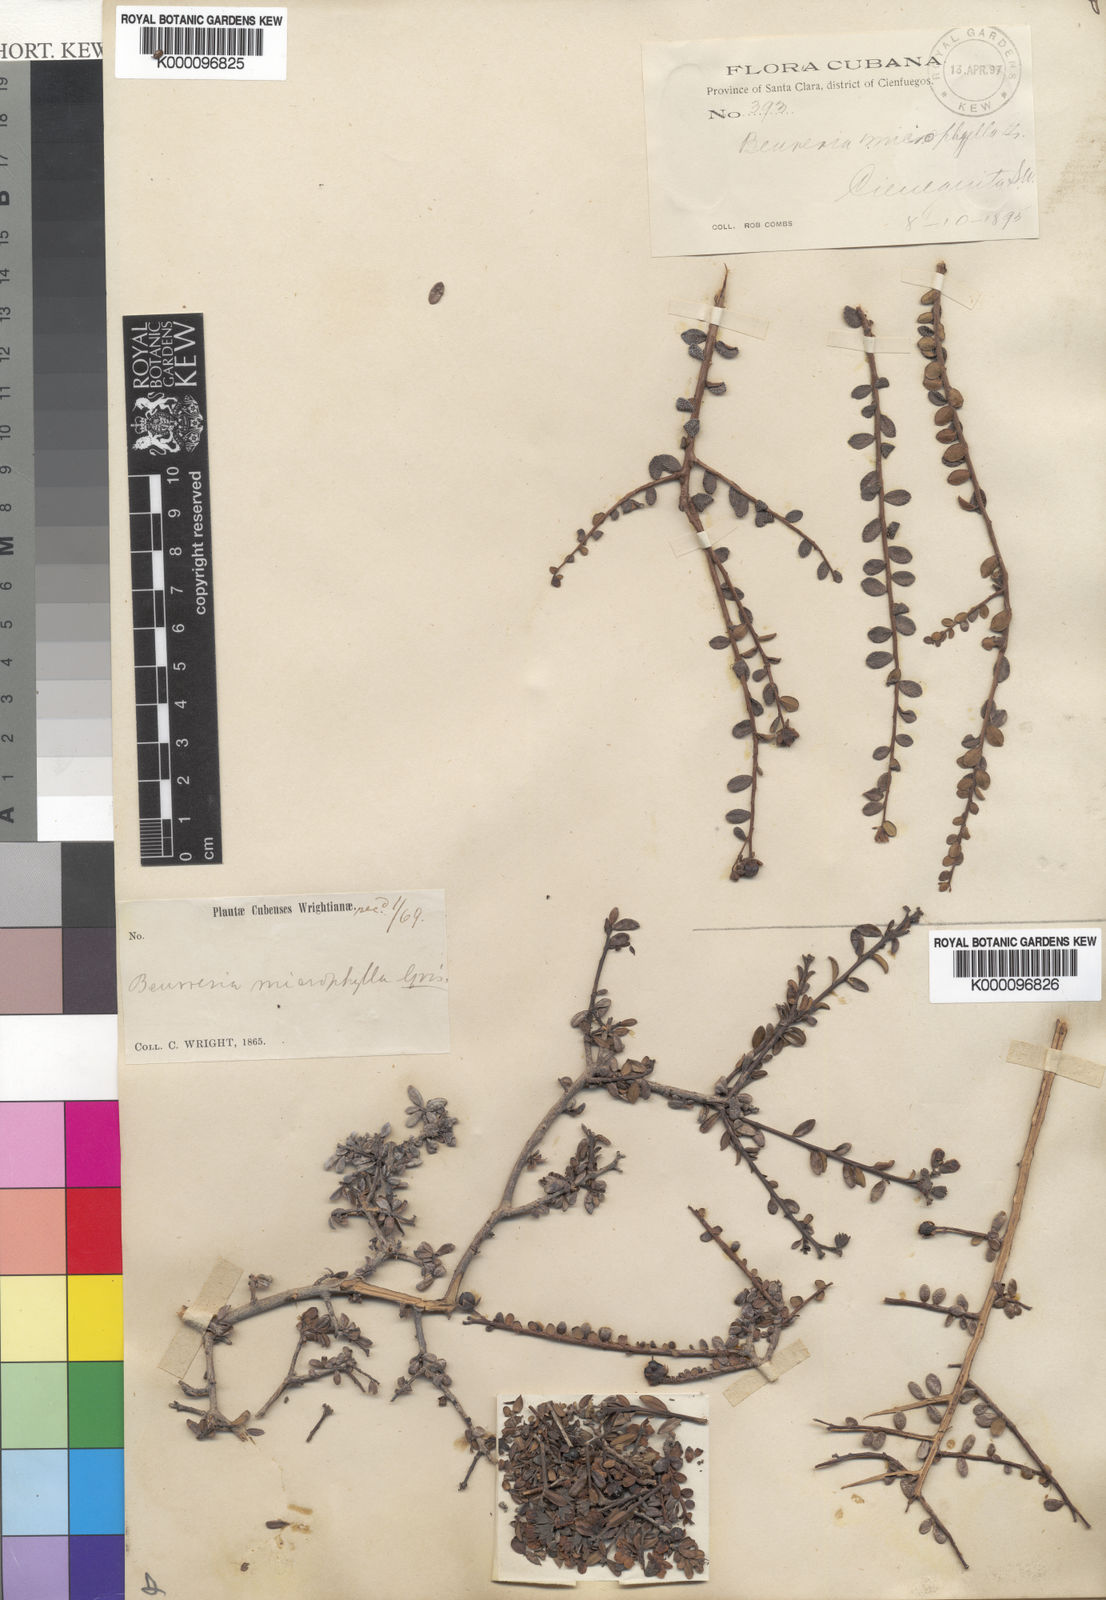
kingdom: Plantae
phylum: Tracheophyta
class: Magnoliopsida
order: Boraginales
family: Ehretiaceae
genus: Bourreria
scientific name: Bourreria microphylla
